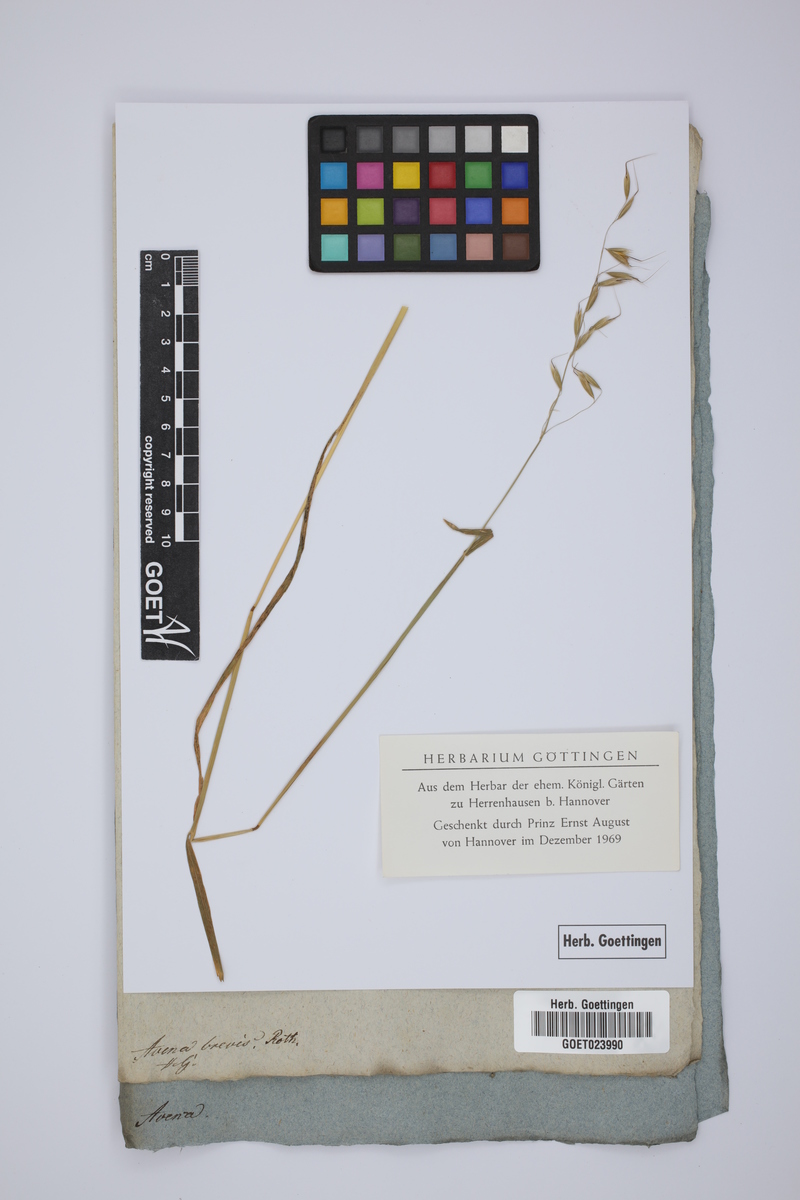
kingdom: Plantae
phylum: Tracheophyta
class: Liliopsida
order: Poales
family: Poaceae
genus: Avena
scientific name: Avena brevis
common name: Short oat
